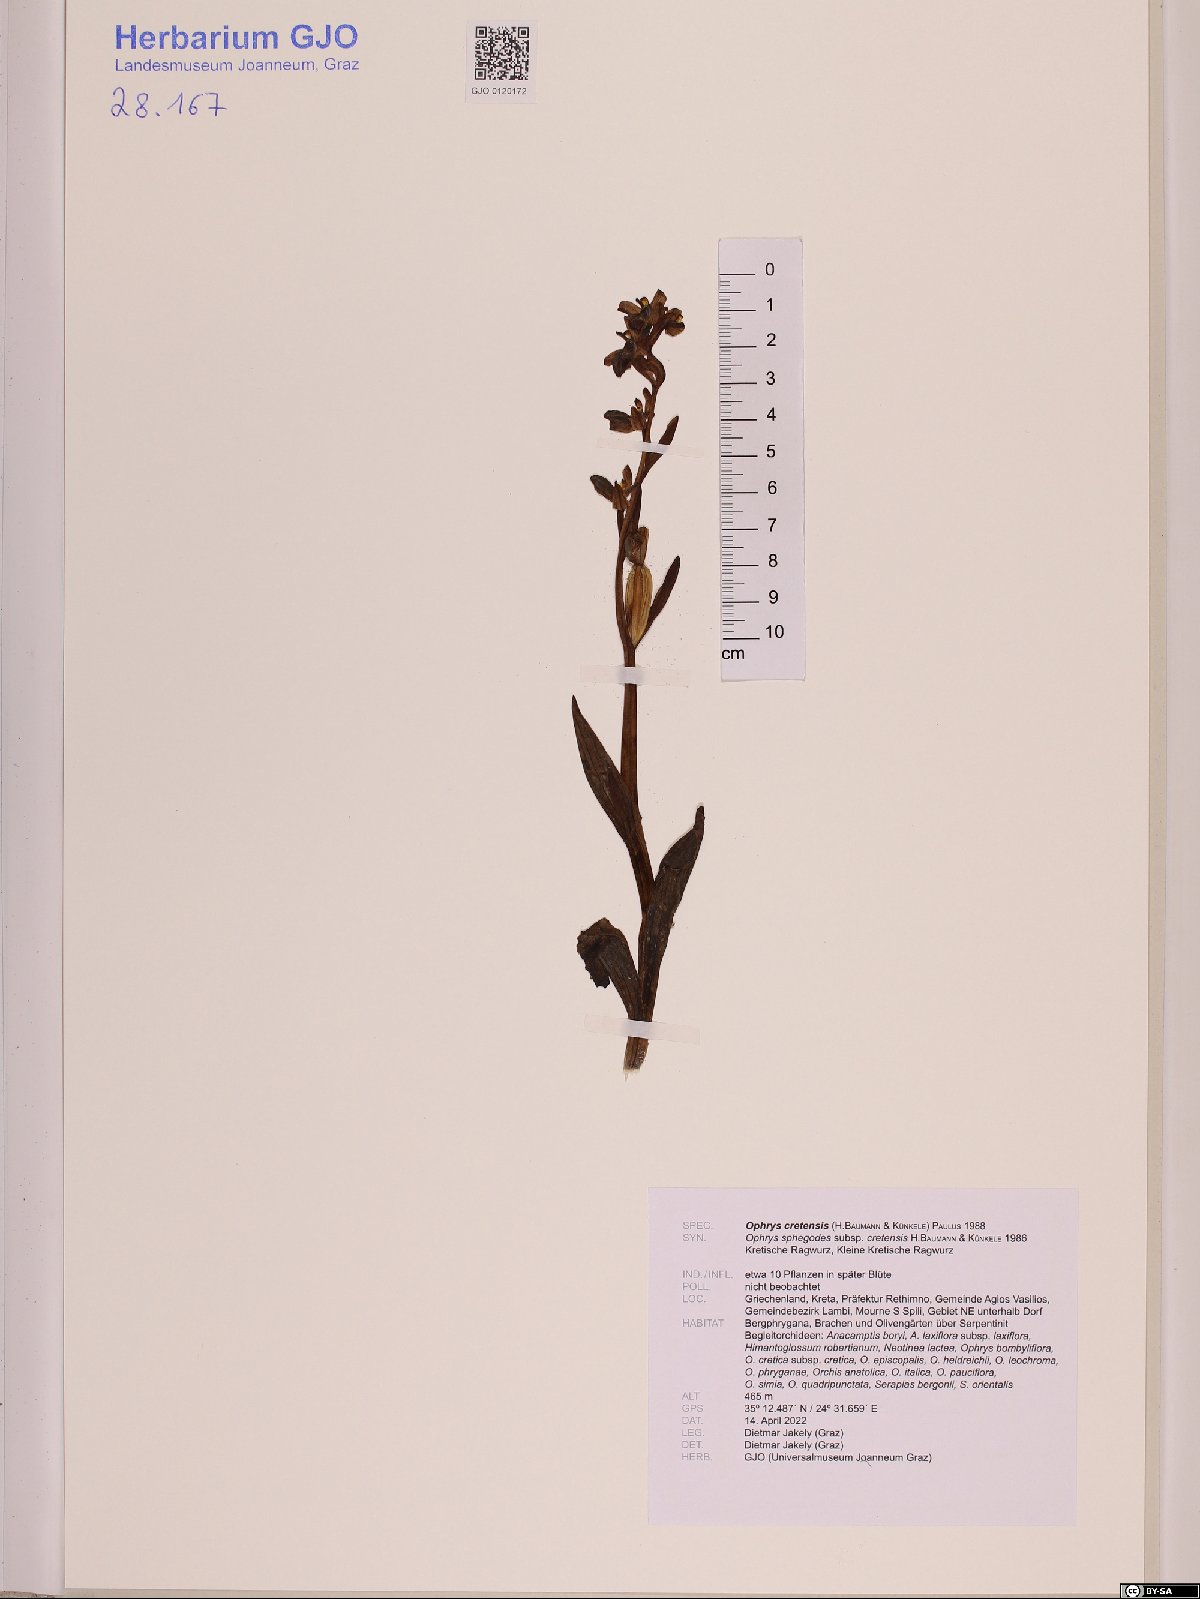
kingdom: Plantae
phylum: Tracheophyta
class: Liliopsida
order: Asparagales
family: Orchidaceae
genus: Ophrys
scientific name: Ophrys sphegodes
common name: Early spider-orchid
